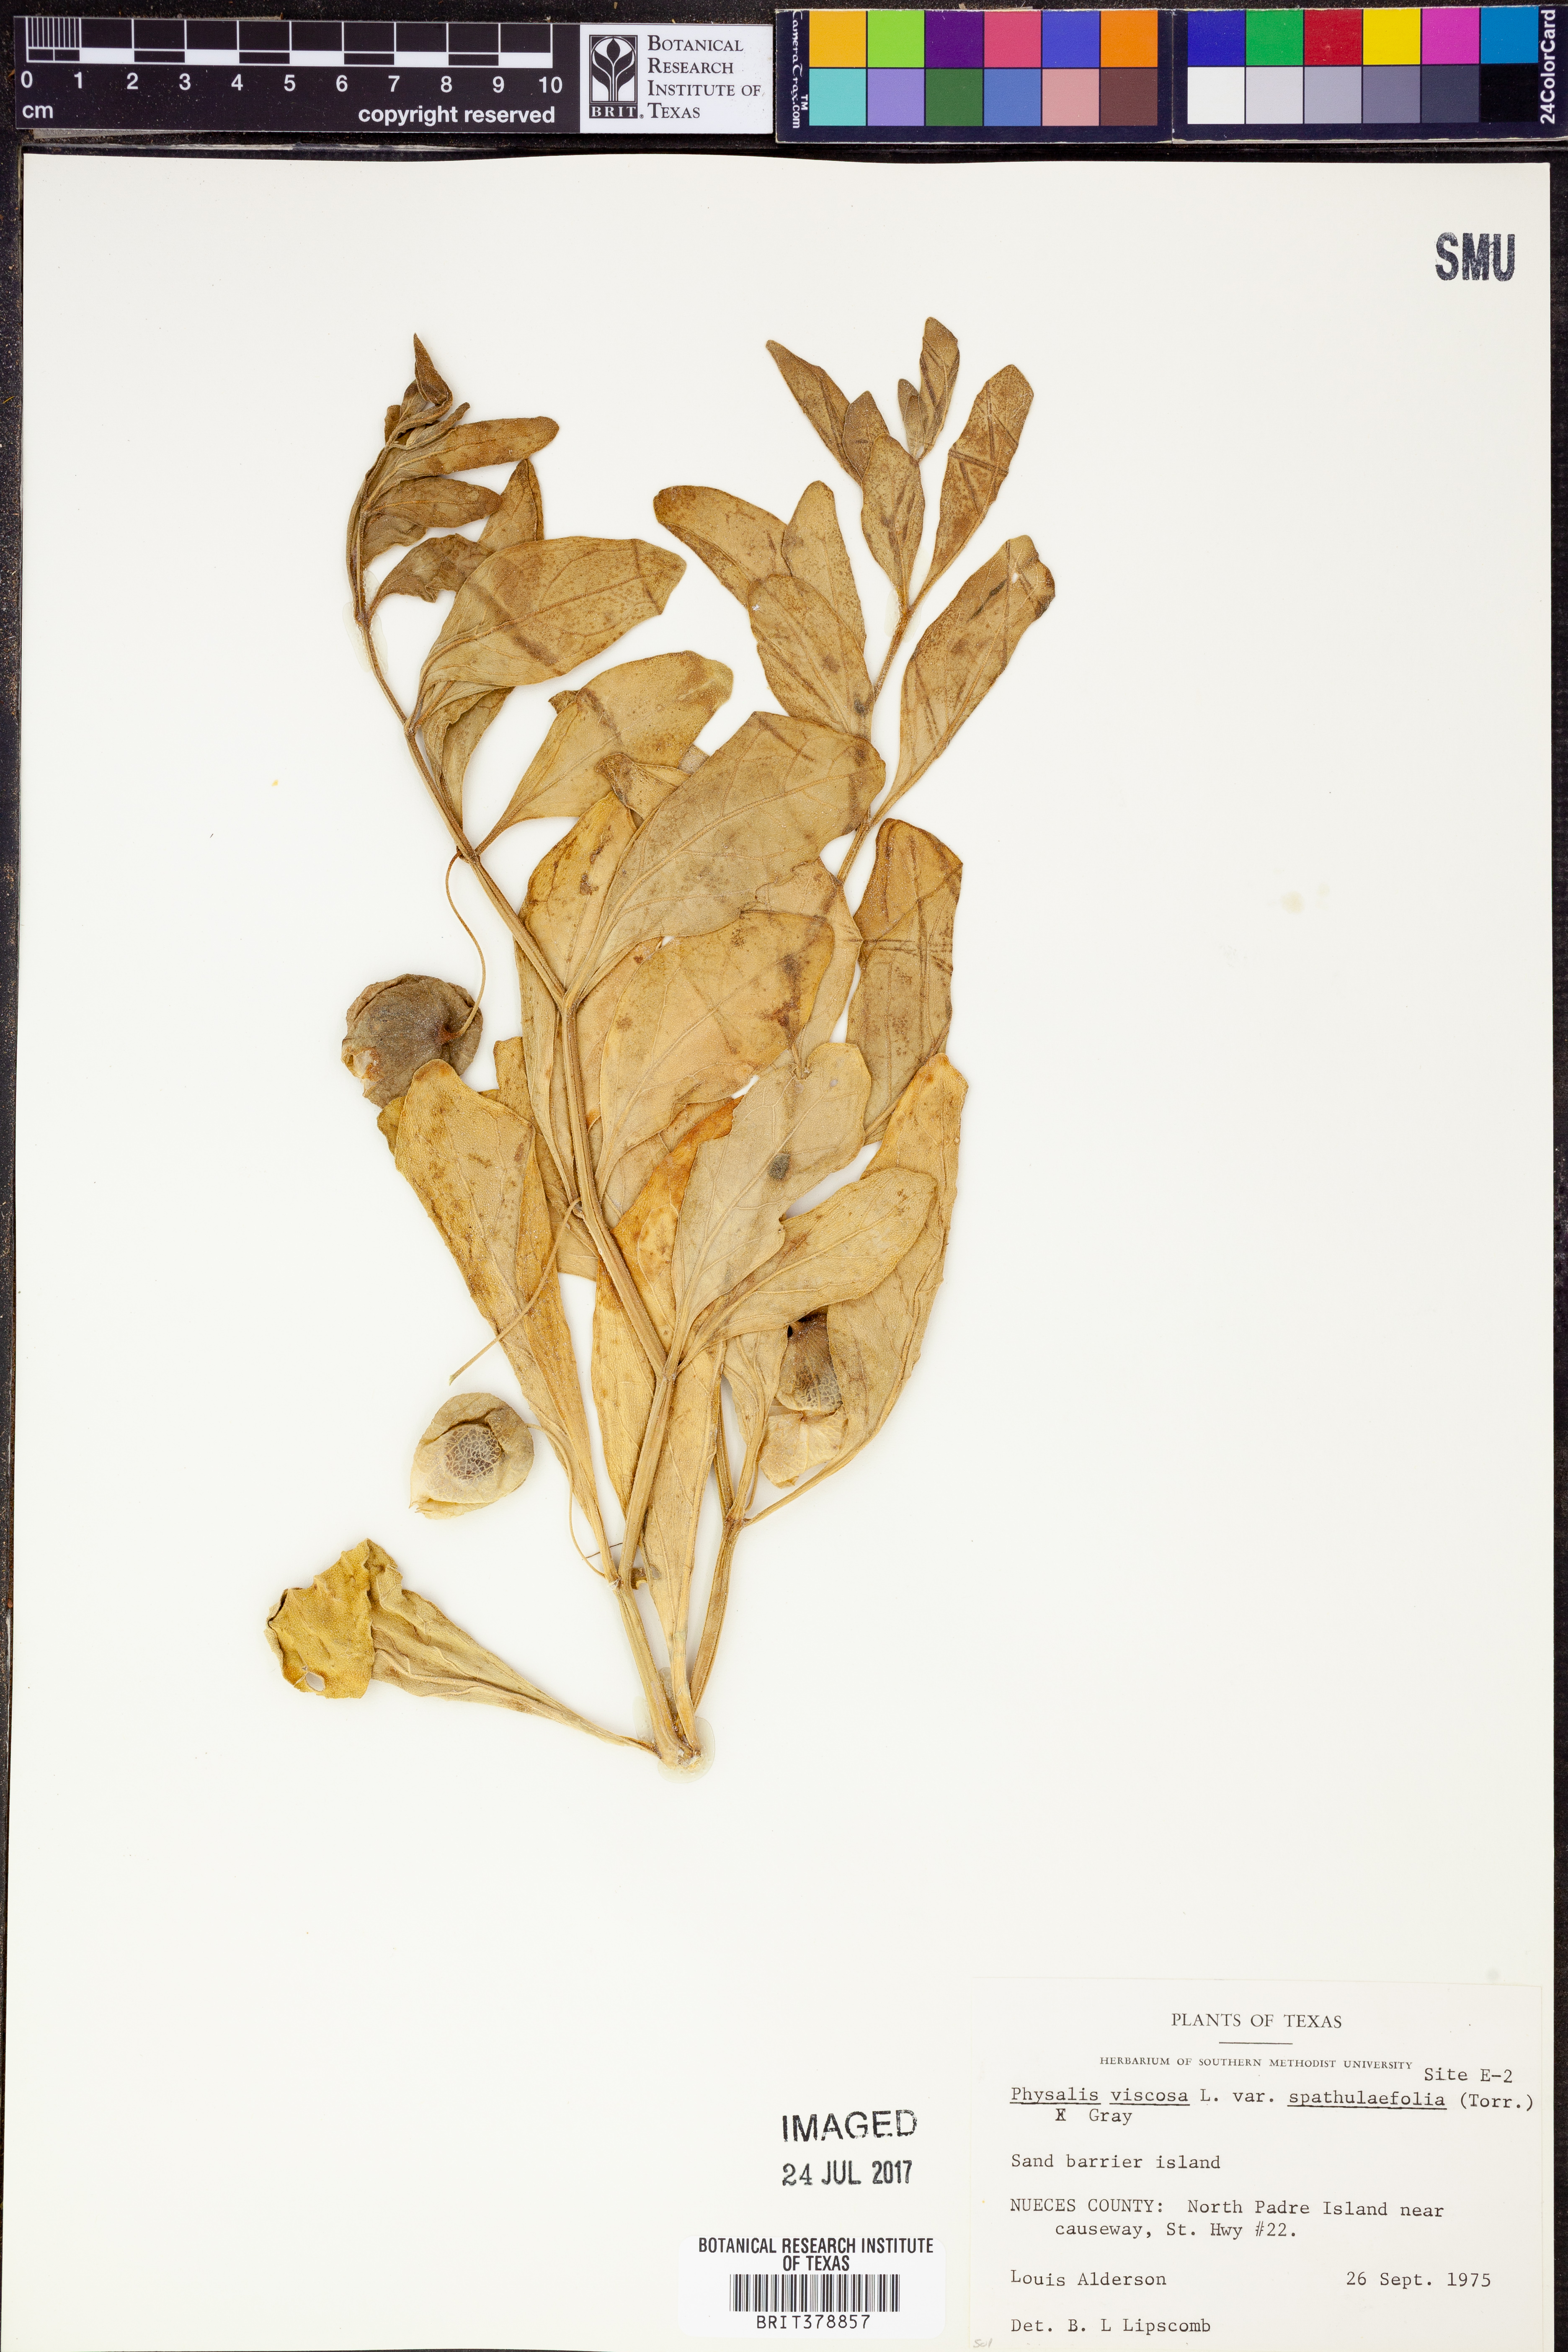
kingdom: Plantae
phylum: Tracheophyta
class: Magnoliopsida
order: Solanales
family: Solanaceae
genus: Physalis
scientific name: Physalis cinerascens
